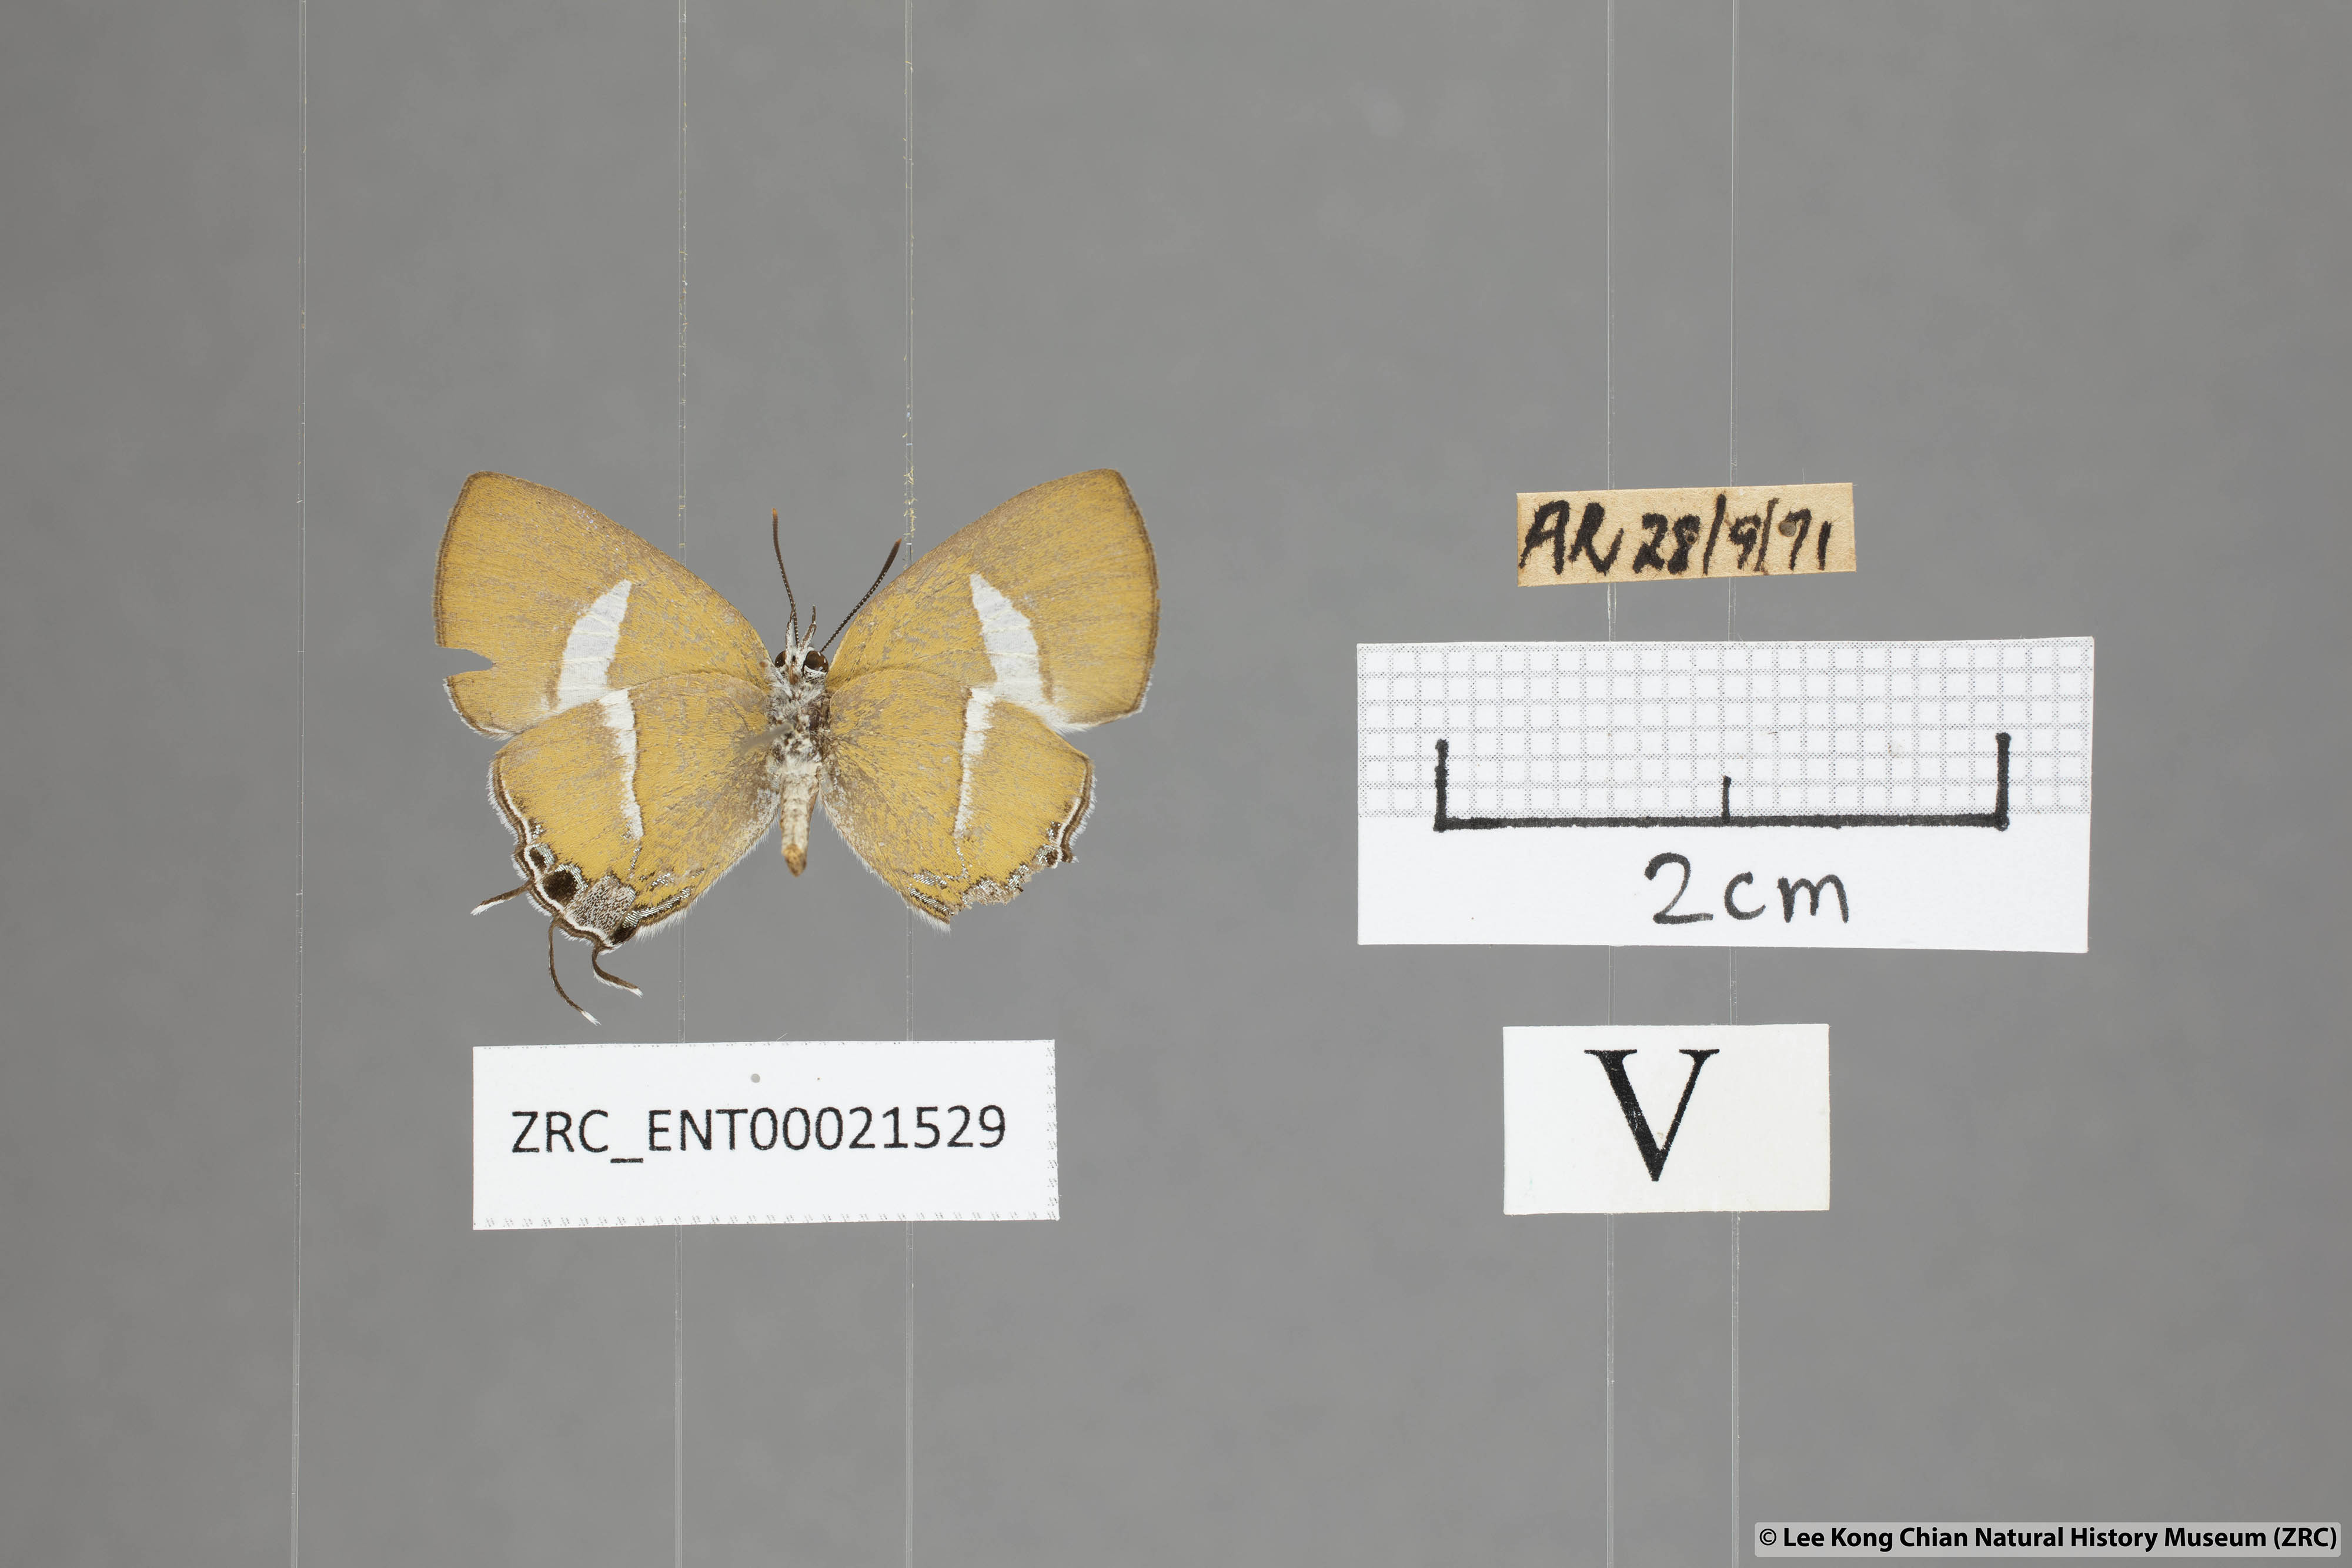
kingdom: Animalia
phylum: Arthropoda
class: Insecta
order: Lepidoptera
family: Lycaenidae
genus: Horaga
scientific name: Horaga syrinx
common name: Ambon onyx
